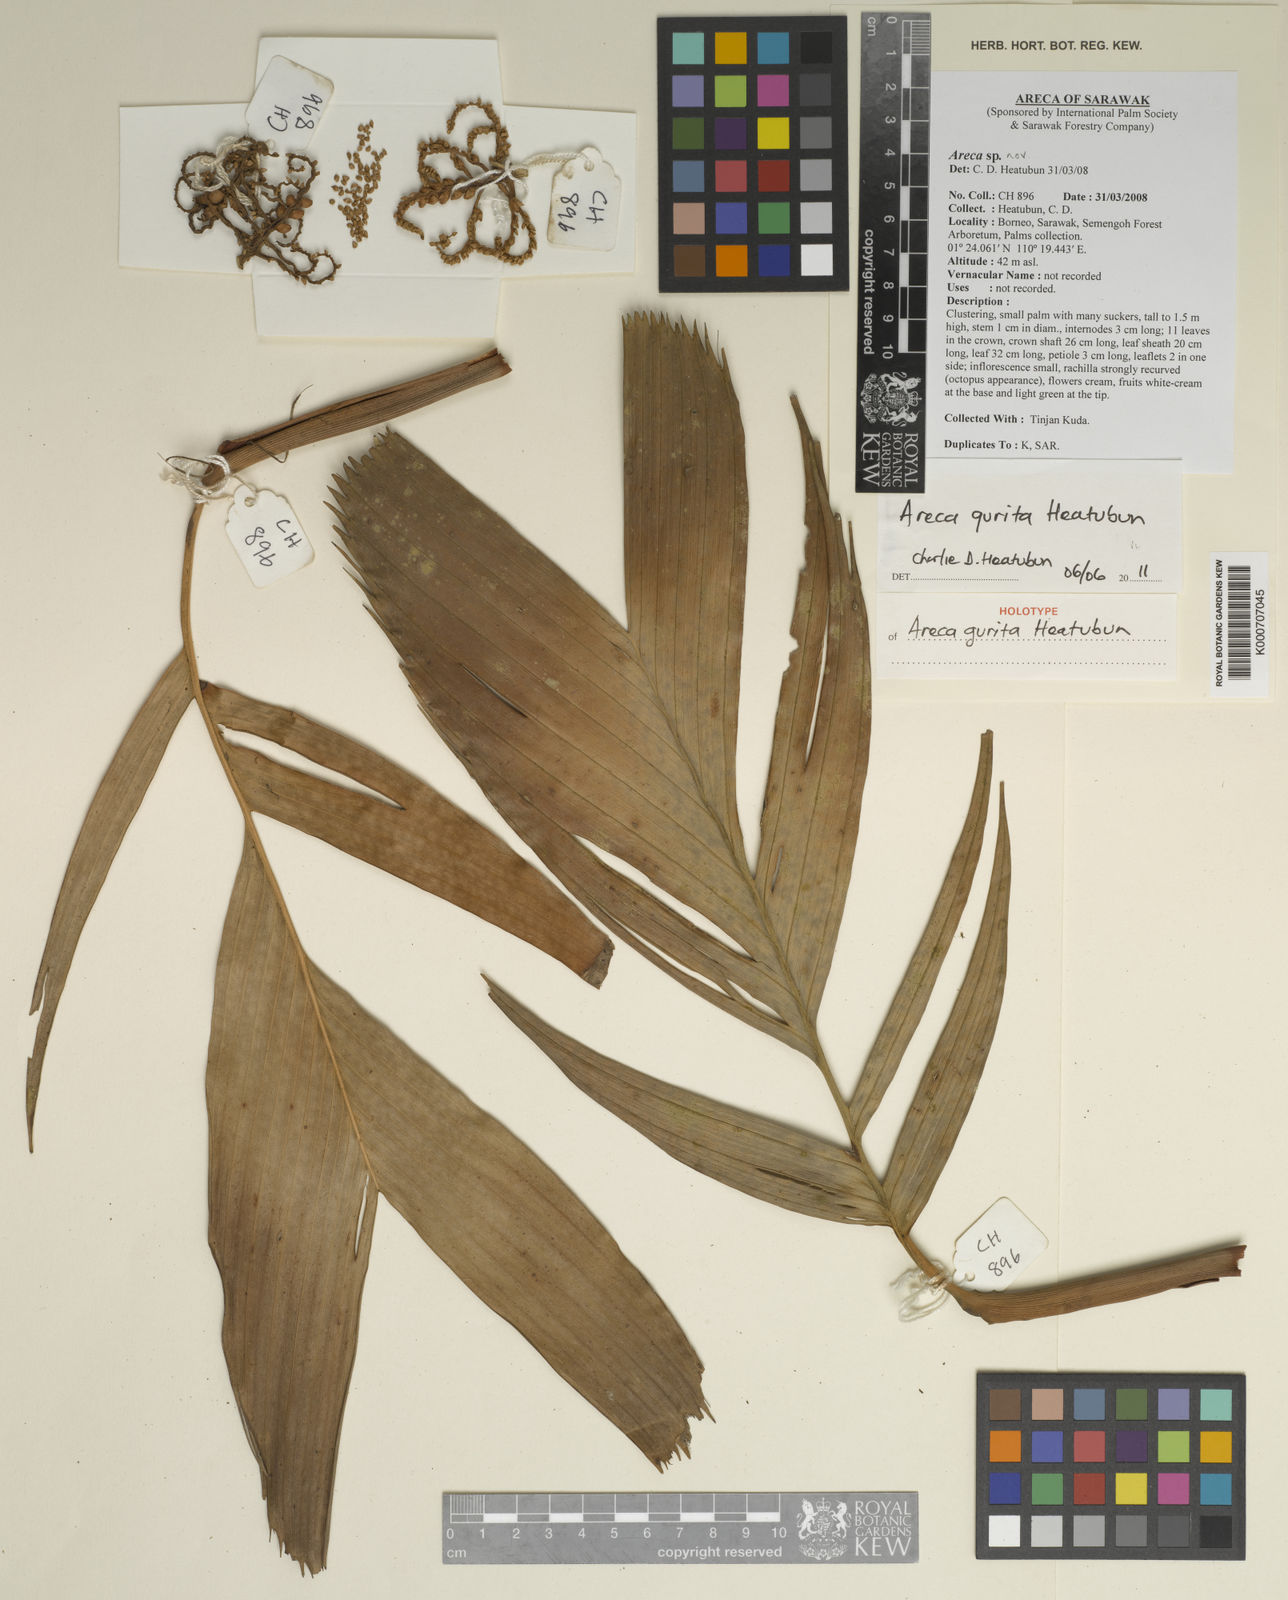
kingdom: Plantae
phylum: Tracheophyta
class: Liliopsida
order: Arecales
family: Arecaceae
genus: Areca
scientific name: Areca gurita
